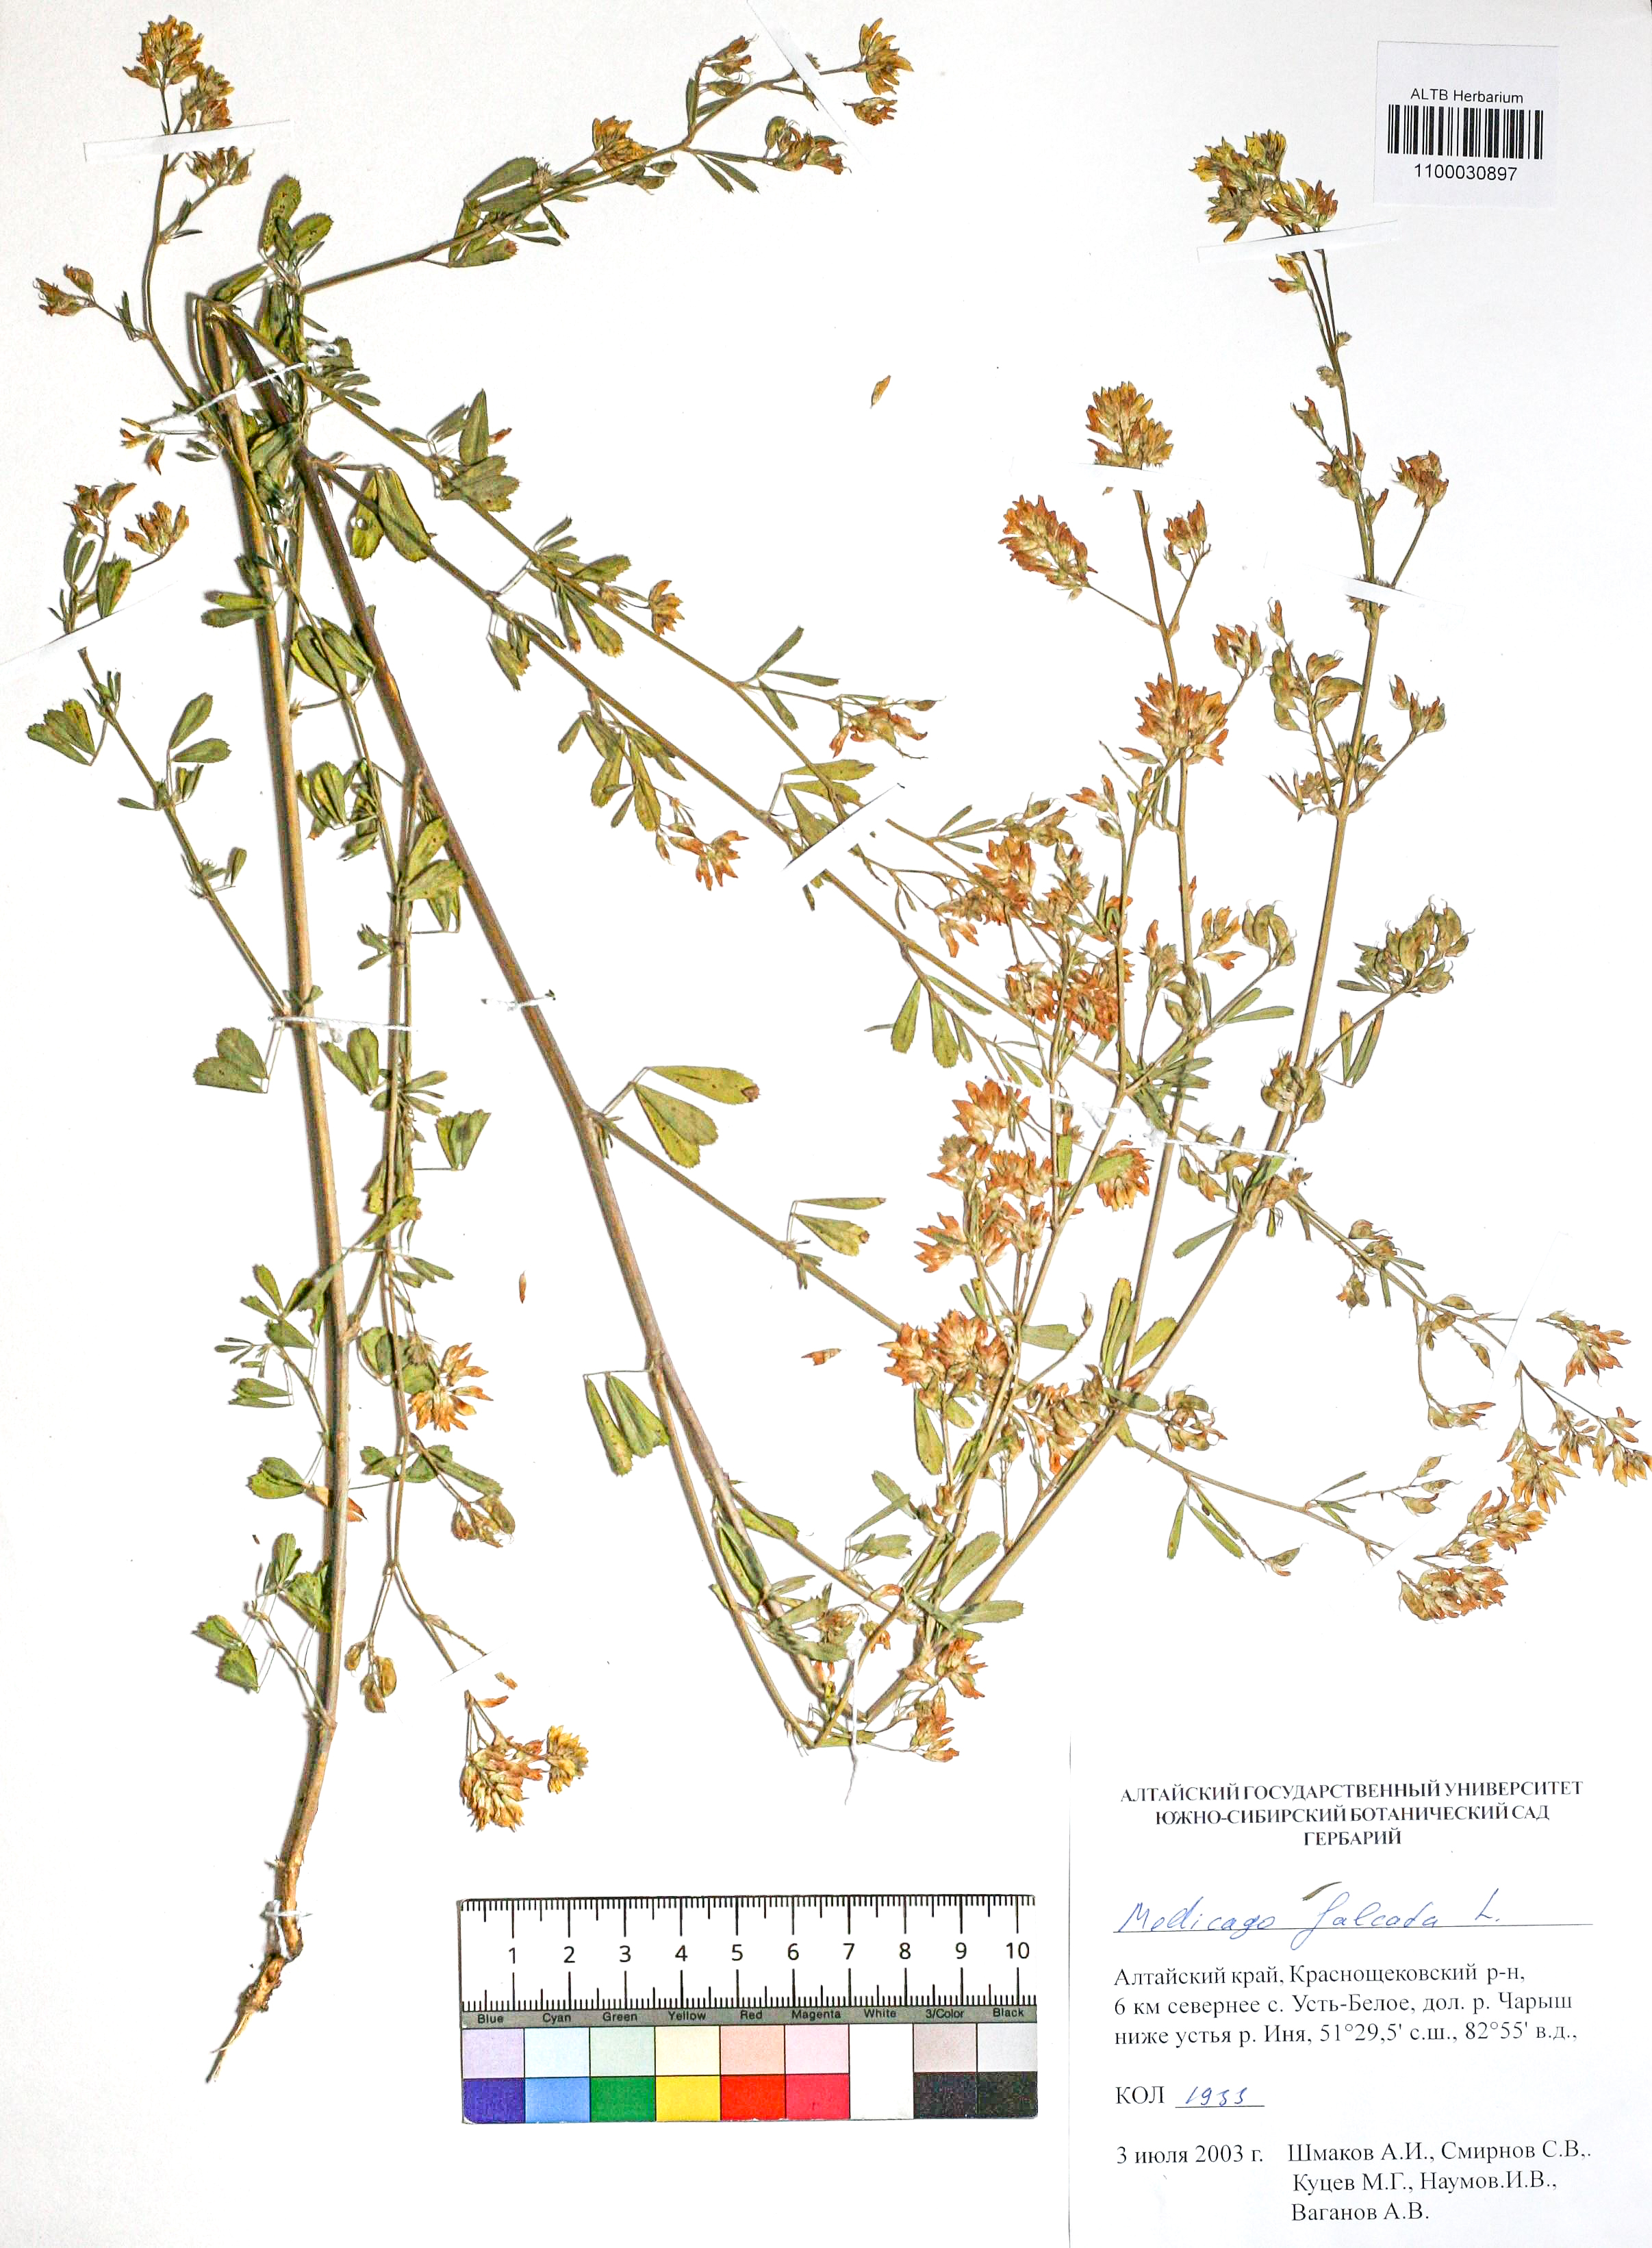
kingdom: Plantae
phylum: Tracheophyta
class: Magnoliopsida
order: Fabales
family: Fabaceae
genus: Medicago
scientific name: Medicago falcata
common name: Sickle medick
